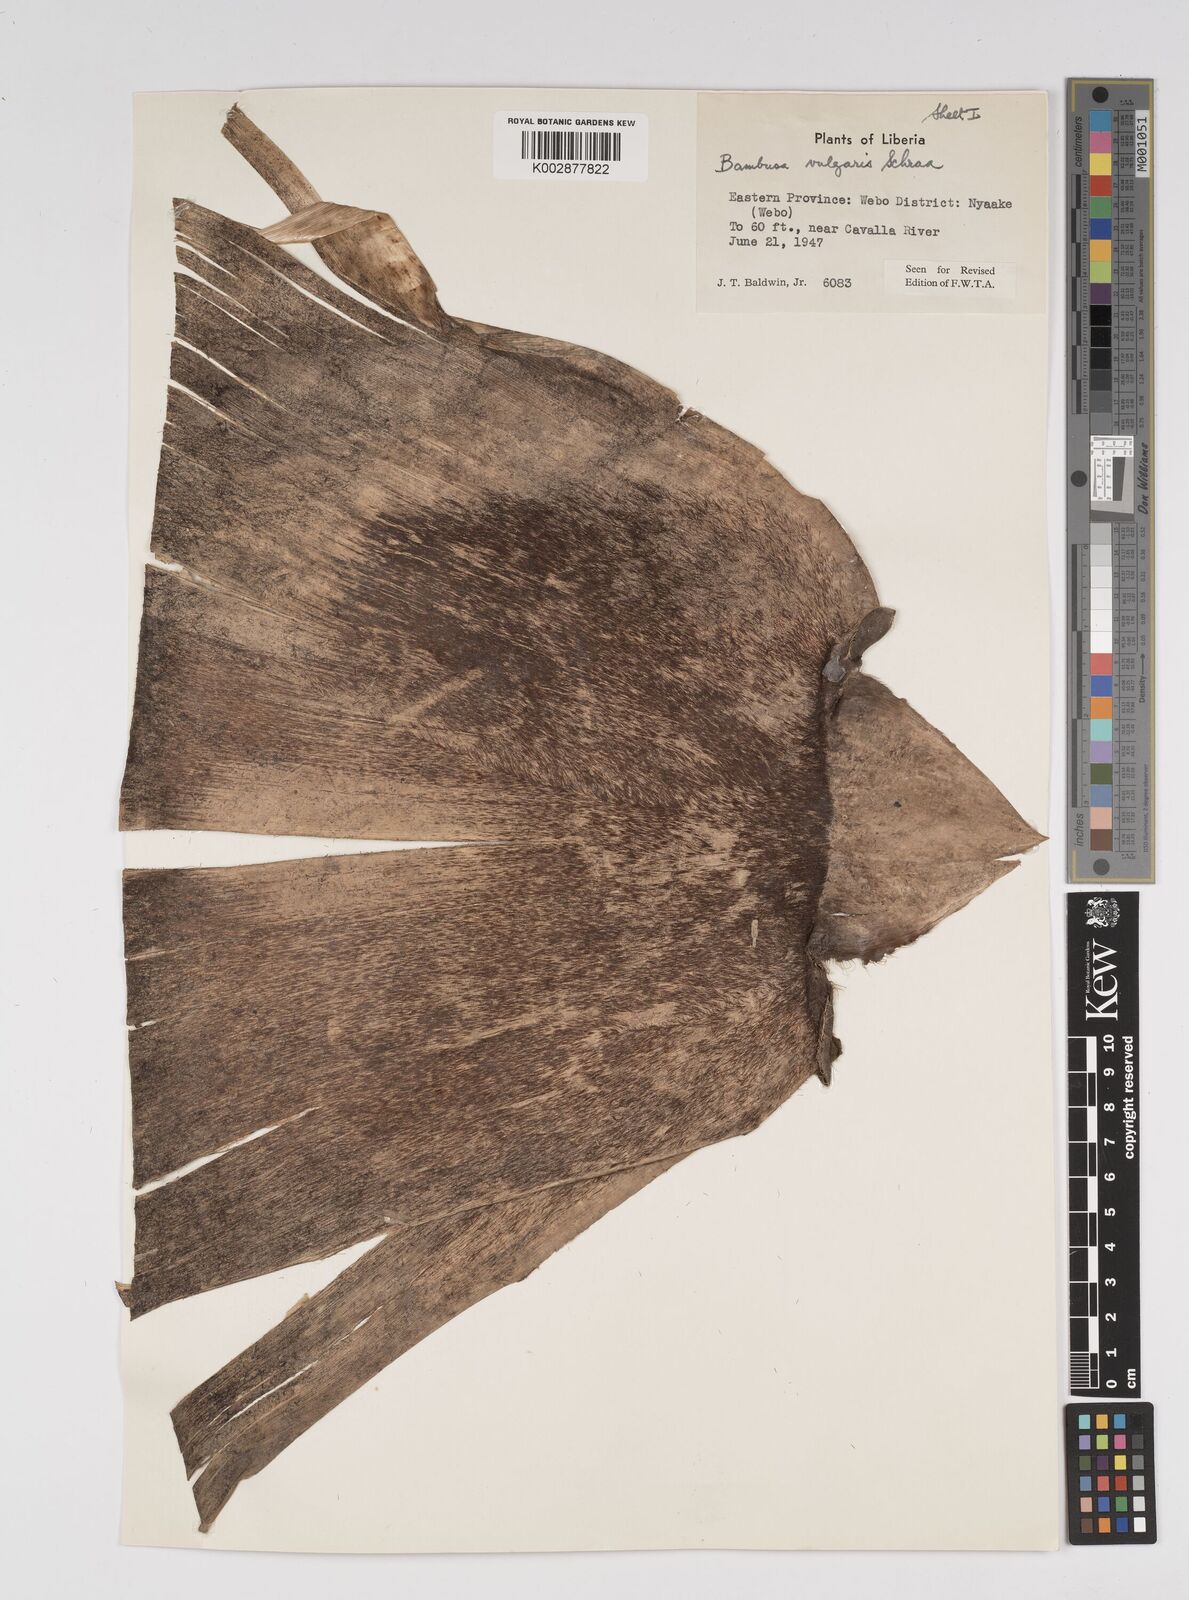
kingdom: Plantae
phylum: Tracheophyta
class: Liliopsida
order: Poales
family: Poaceae
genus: Bambusa
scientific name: Bambusa vulgaris
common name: Common bamboo
